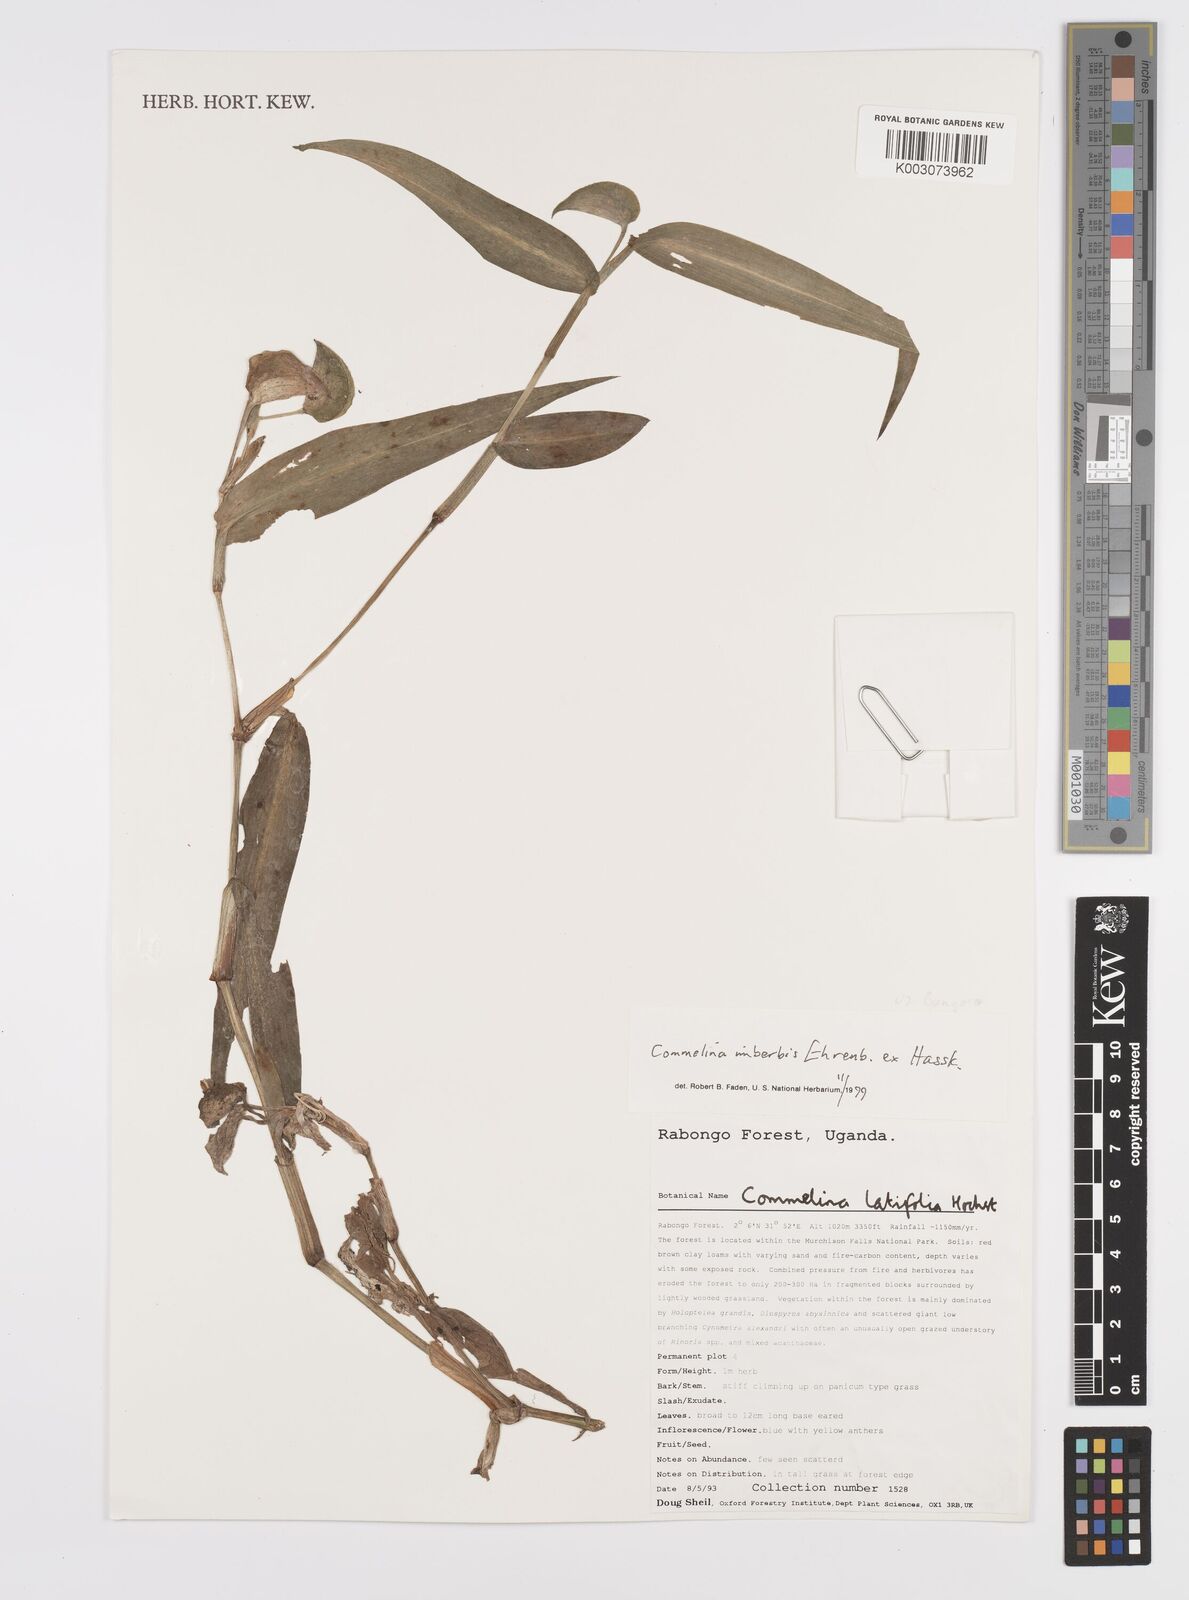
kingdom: Plantae
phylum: Tracheophyta
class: Liliopsida
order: Commelinales
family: Commelinaceae
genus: Commelina
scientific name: Commelina imberbis
